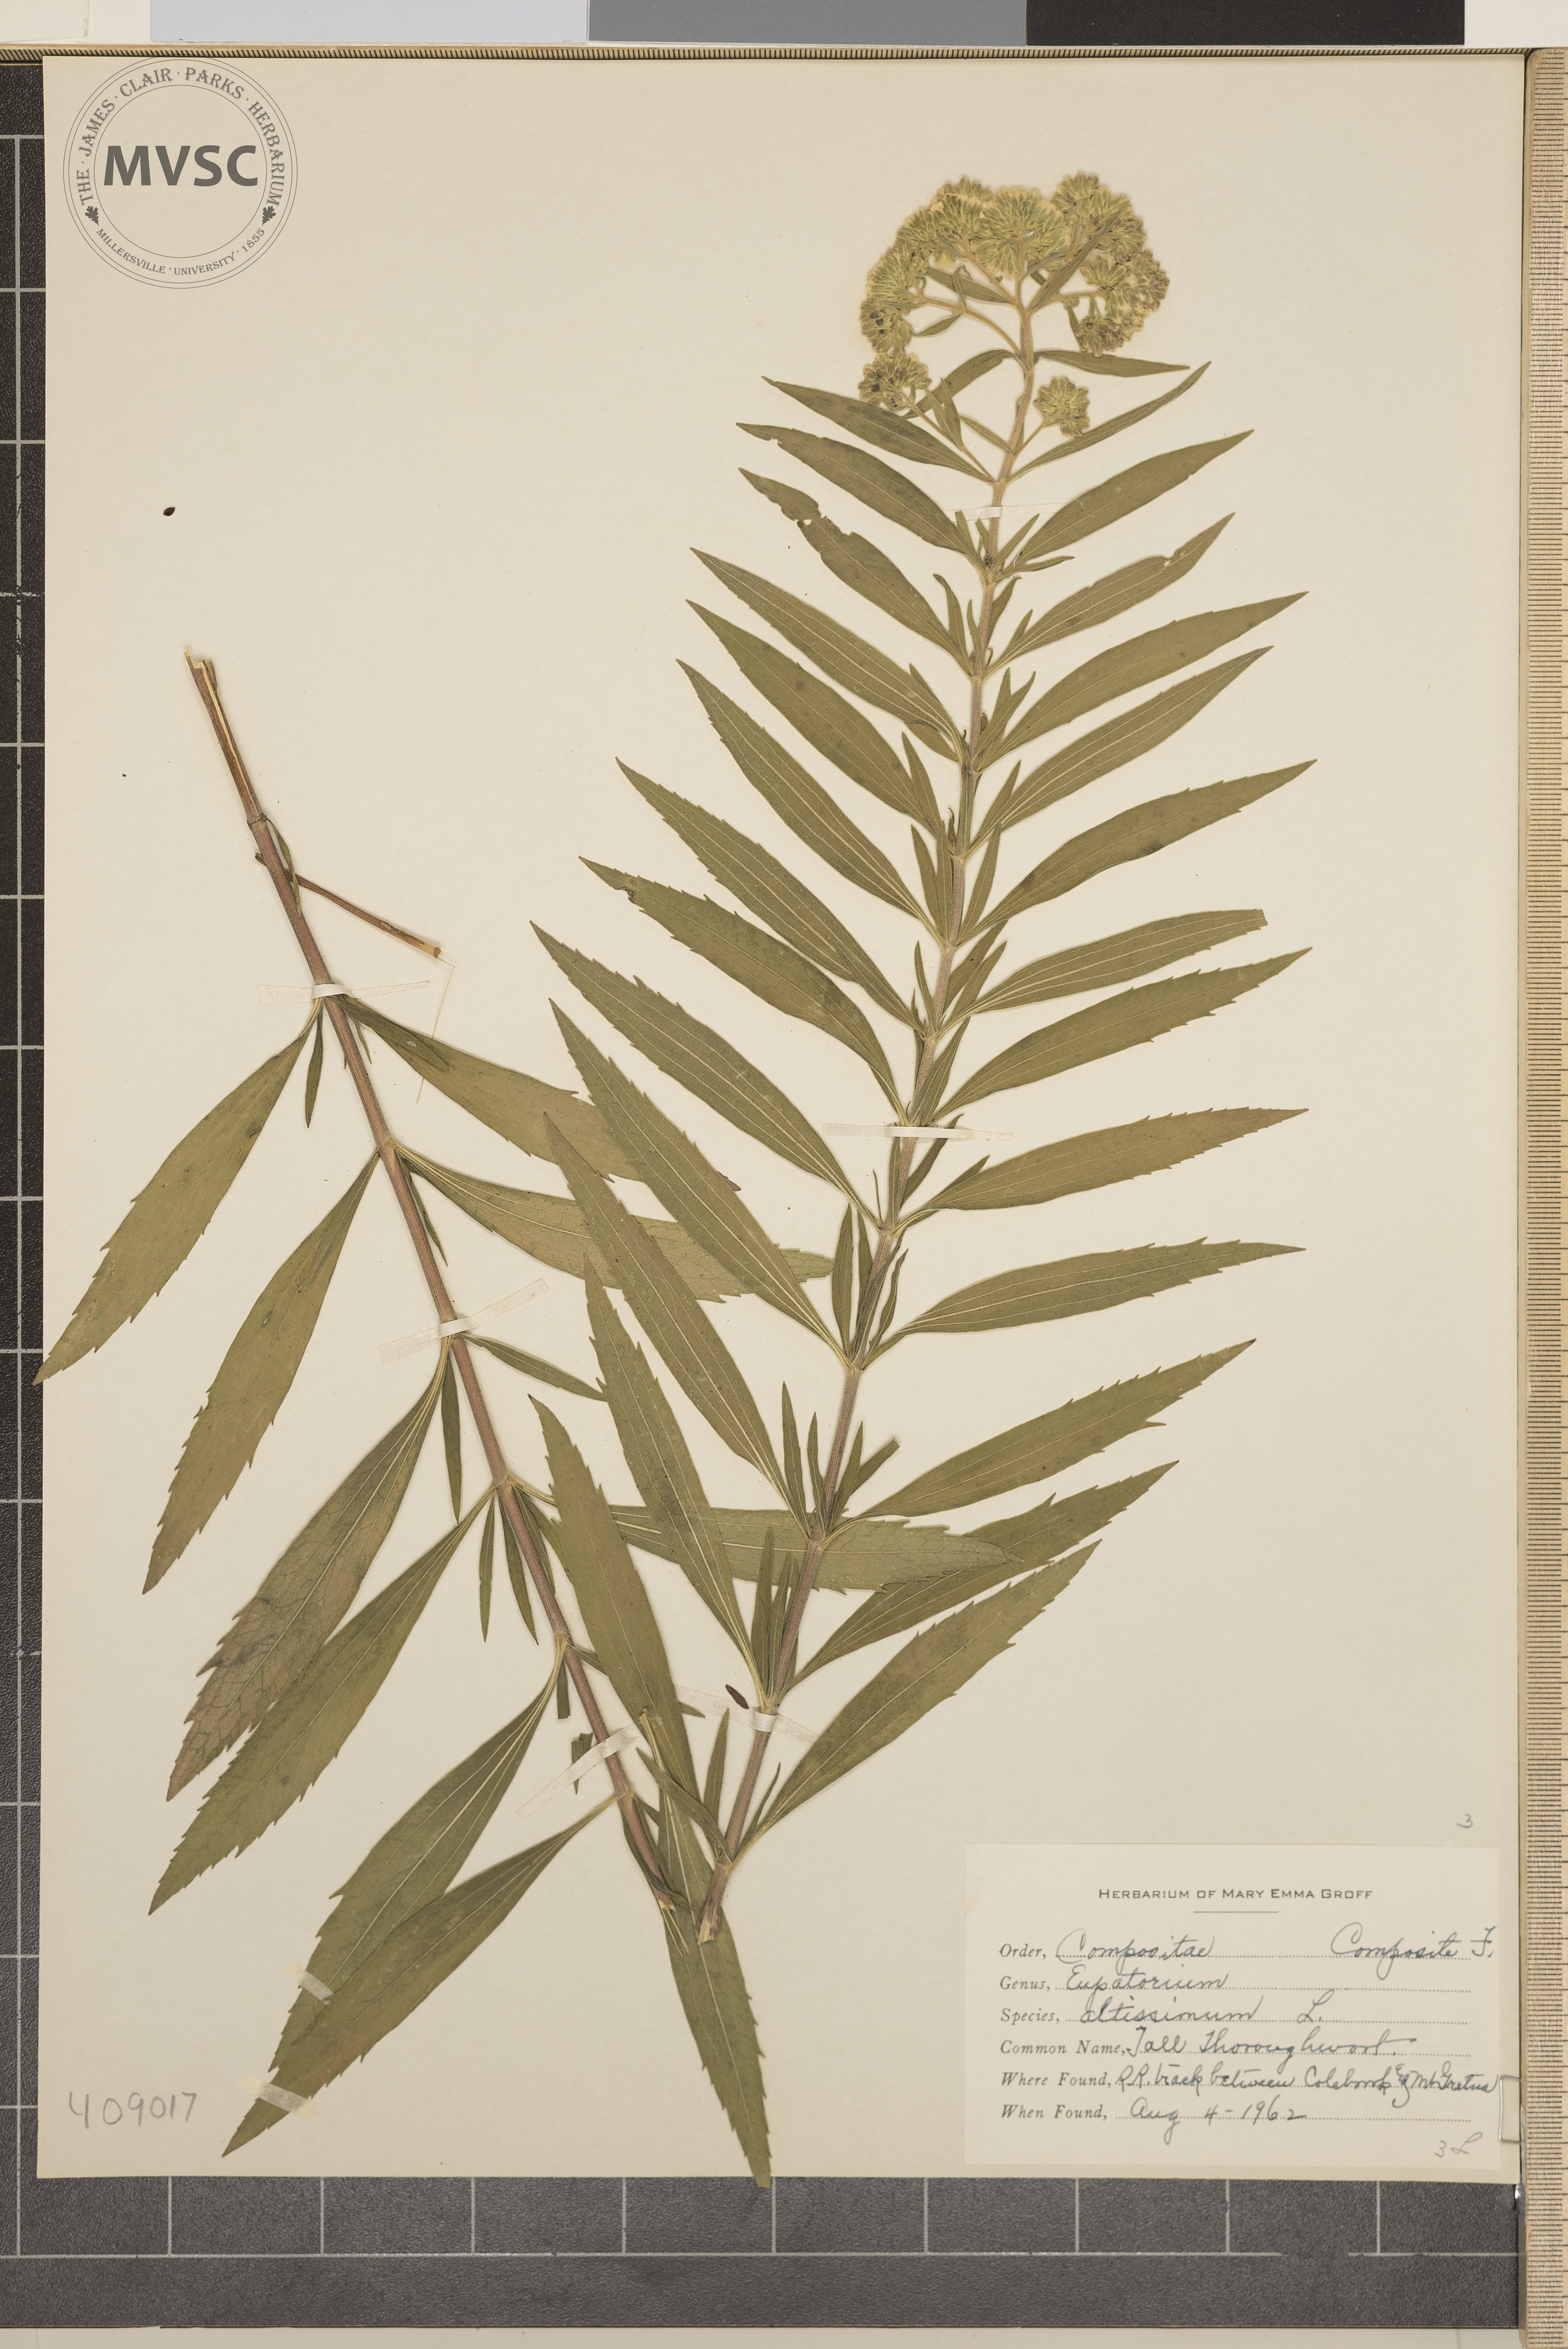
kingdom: Plantae
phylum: Tracheophyta
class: Magnoliopsida
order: Asterales
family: Asteraceae
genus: Eupatorium
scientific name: Eupatorium altissimum
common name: Tall Thoroughwort
